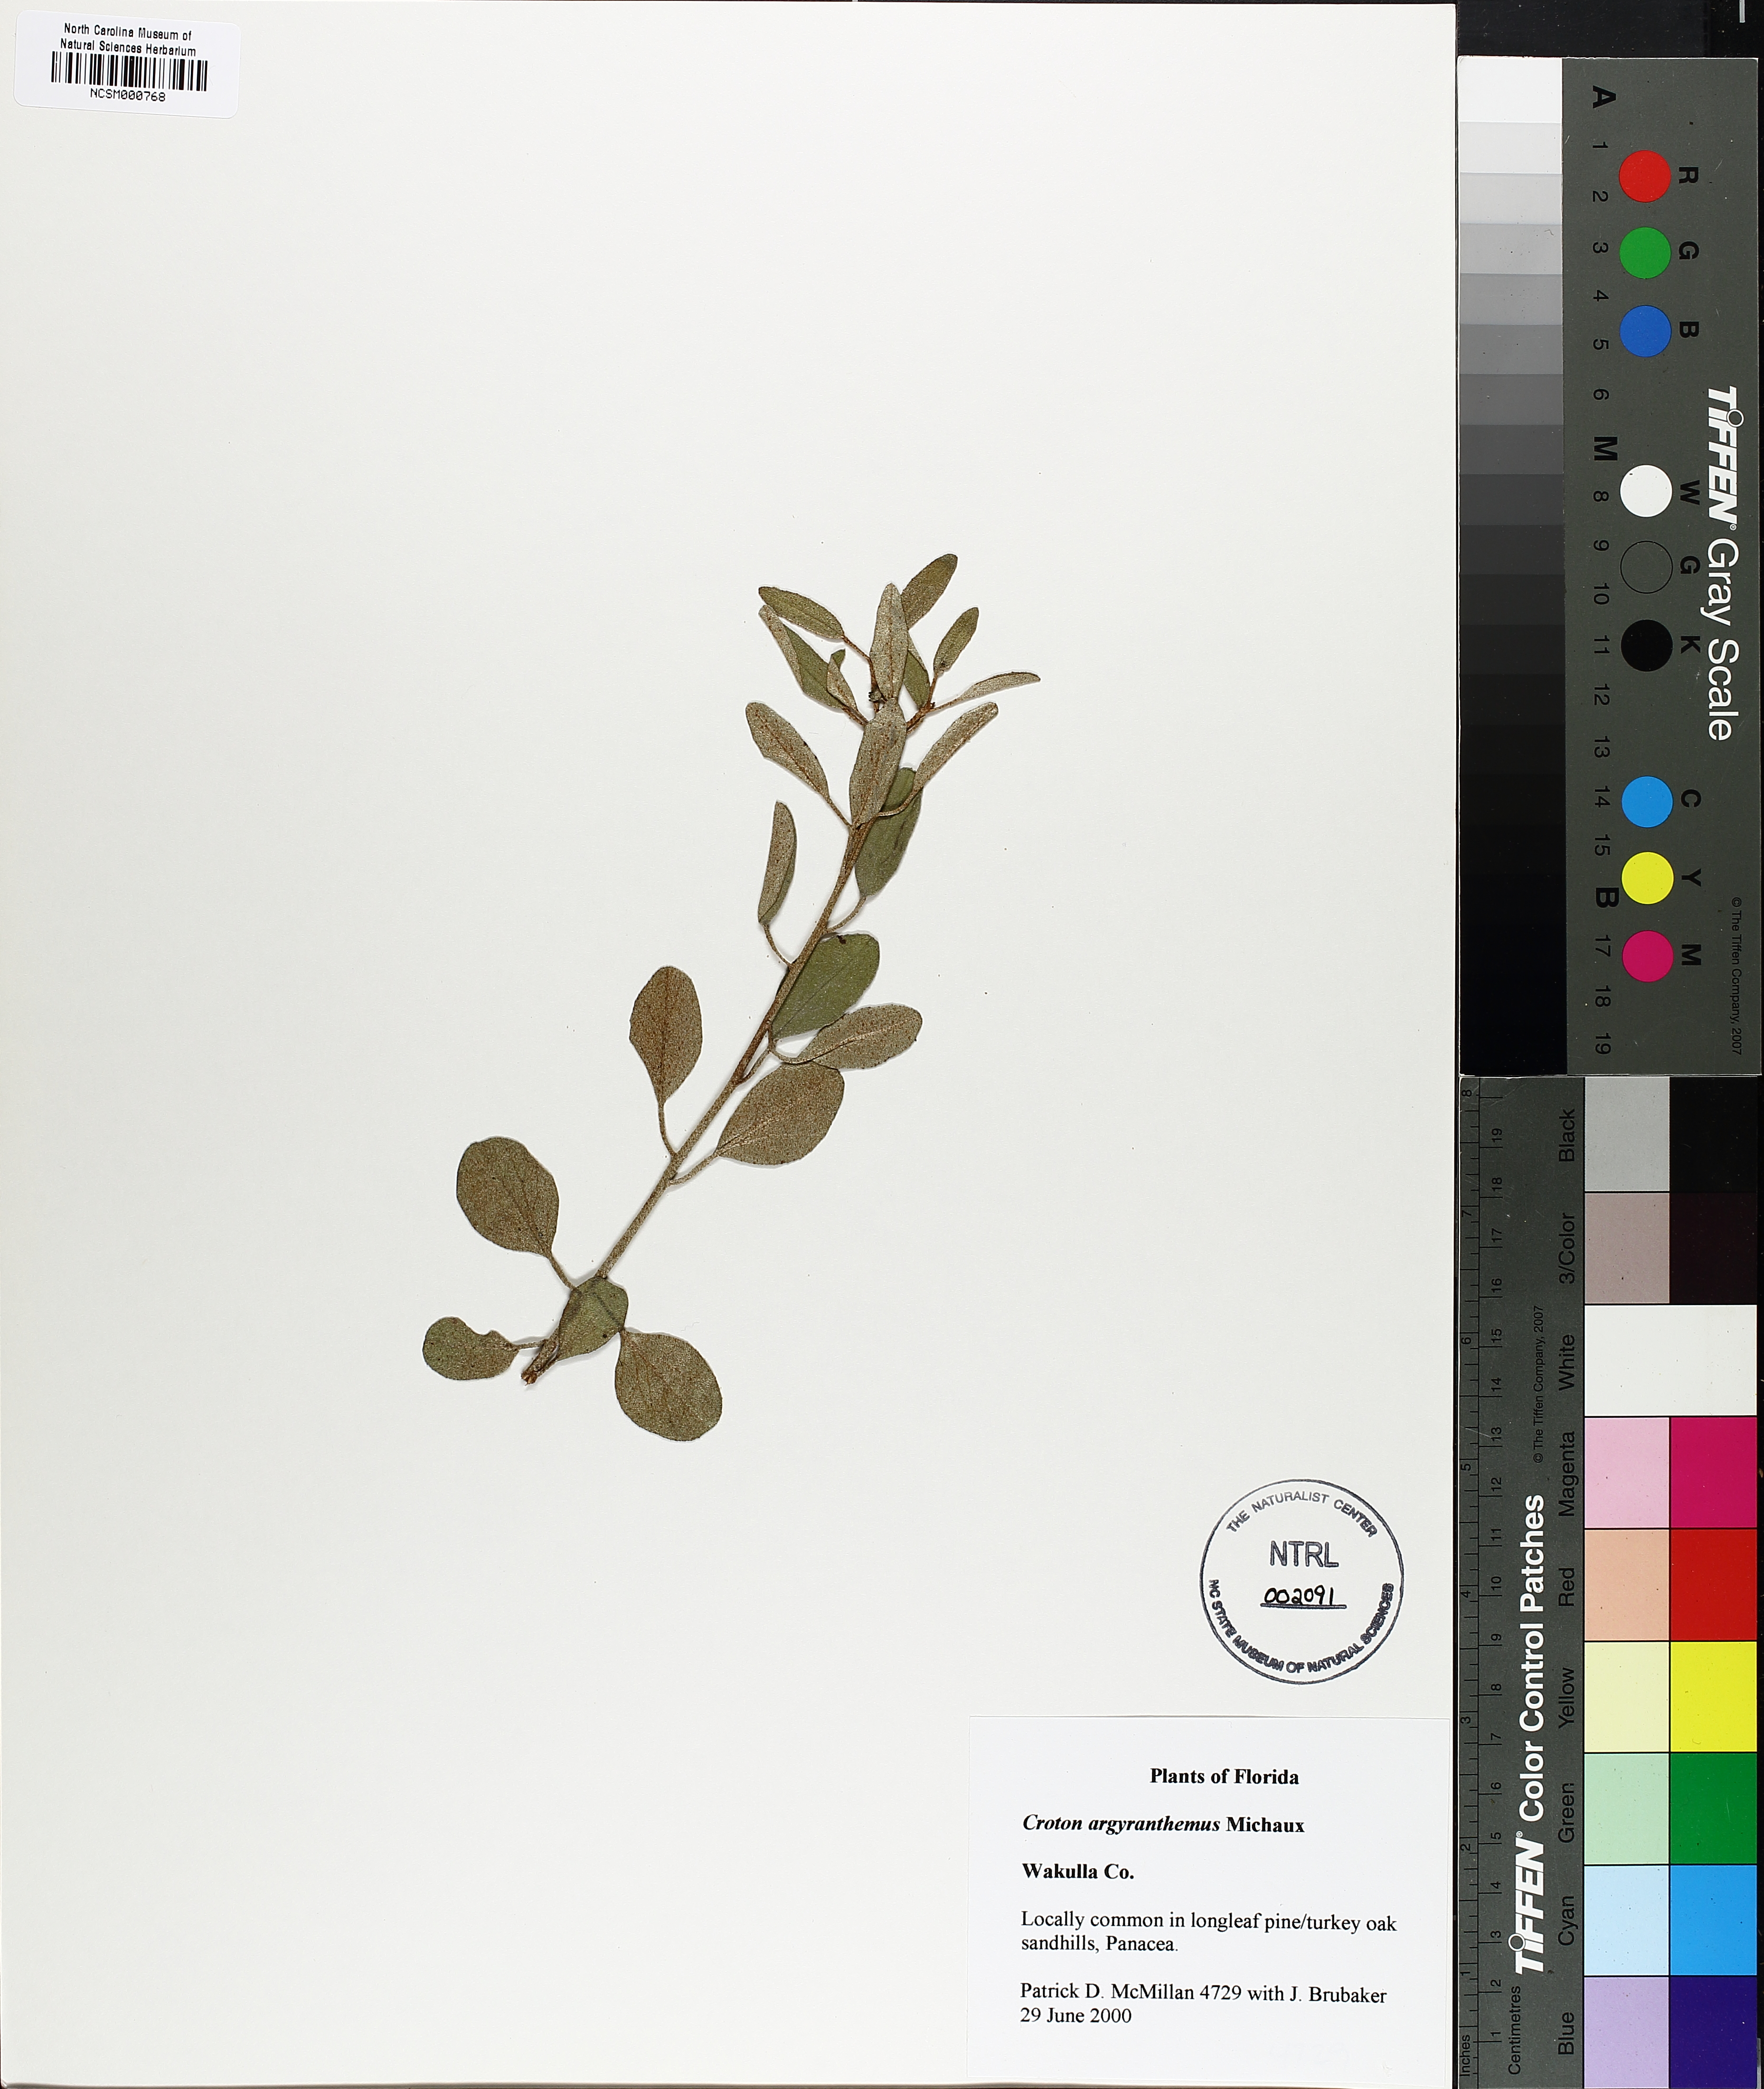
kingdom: Plantae
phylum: Tracheophyta
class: Magnoliopsida
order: Malpighiales
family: Euphorbiaceae
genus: Croton
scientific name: Croton argyranthemus
